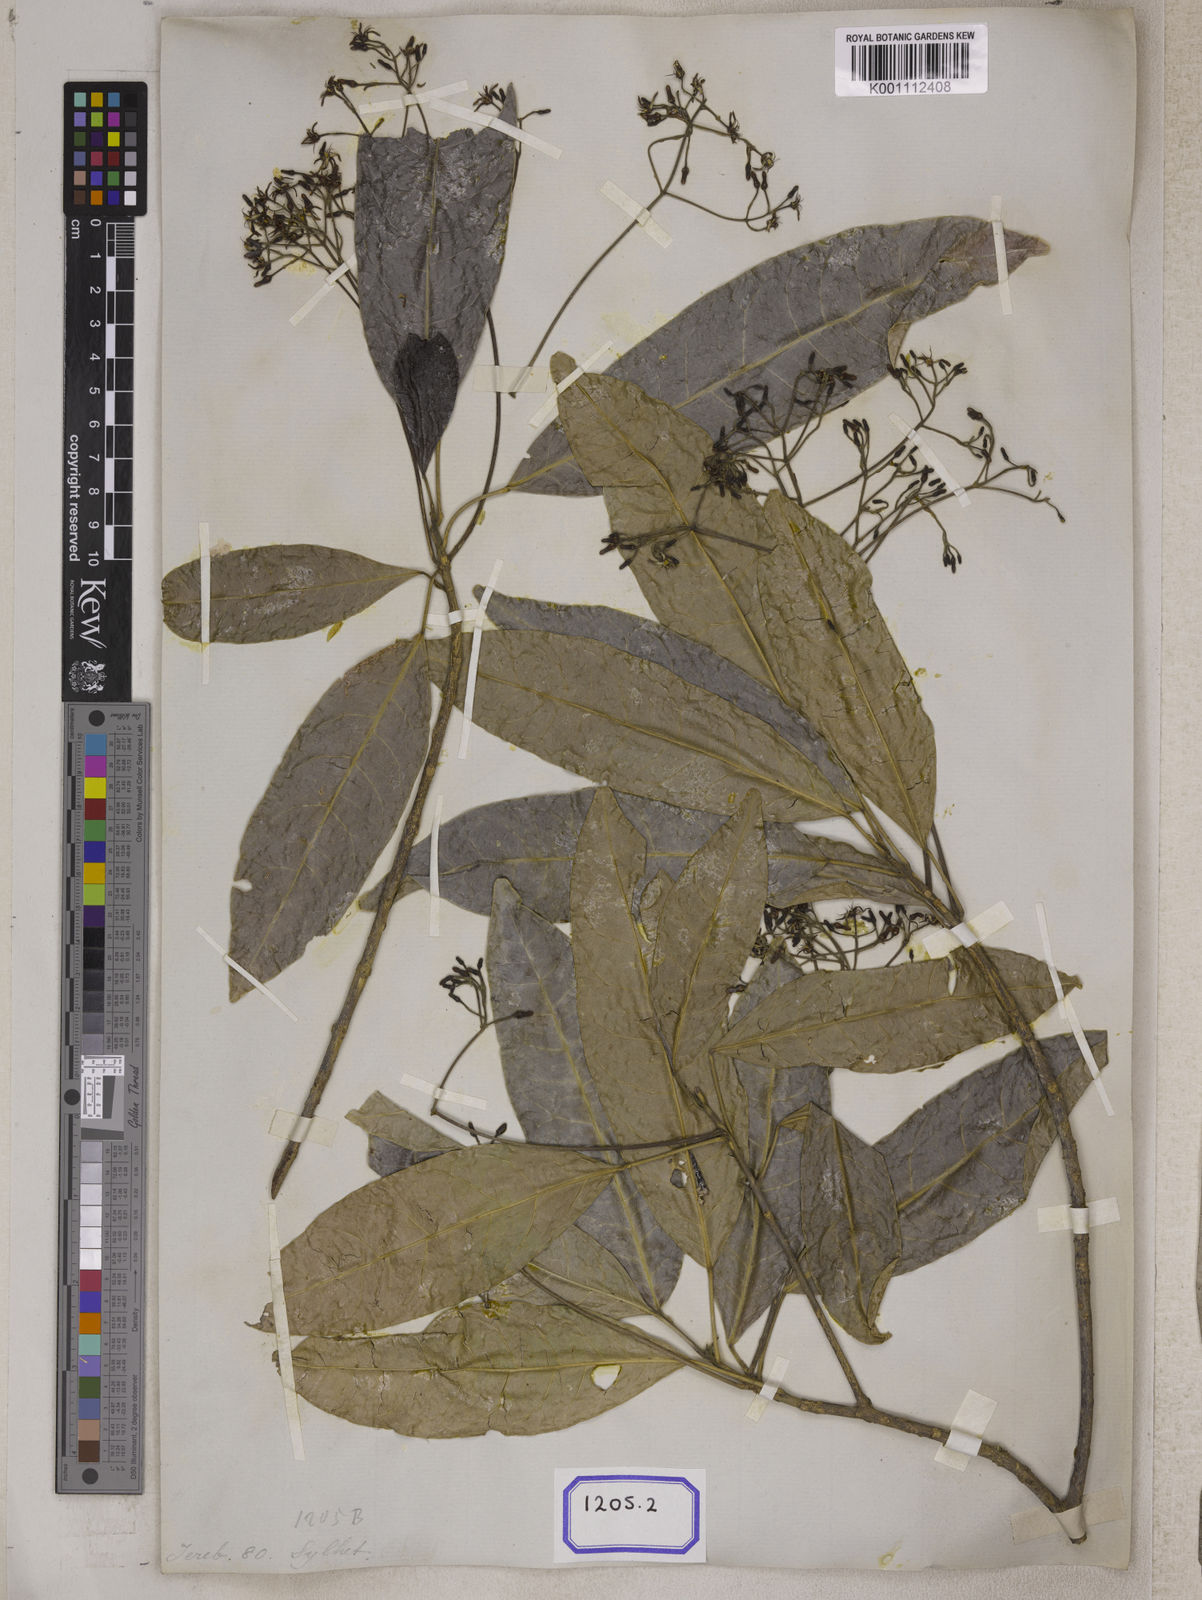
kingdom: Plantae
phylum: Tracheophyta
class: Magnoliopsida
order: Sapindales
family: Rutaceae
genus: Acronychia
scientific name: Acronychia
